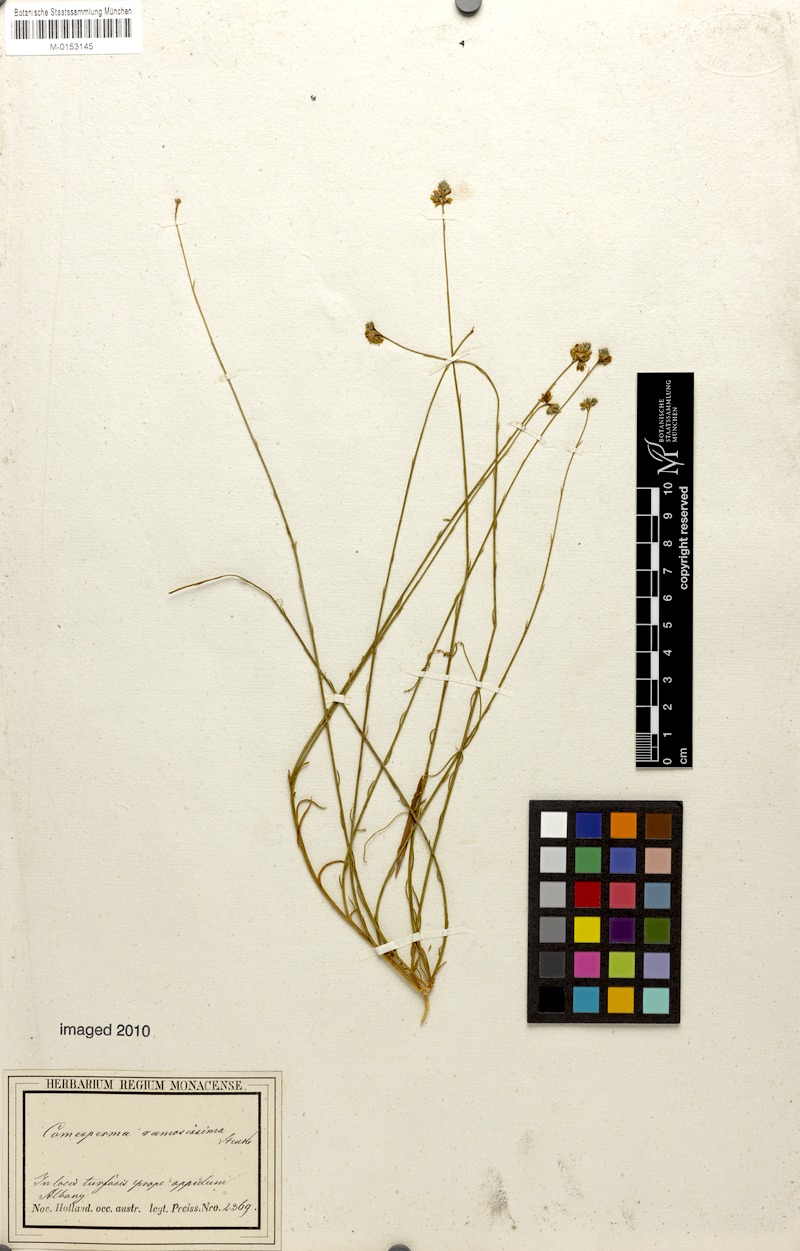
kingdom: Plantae
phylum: Tracheophyta
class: Magnoliopsida
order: Fabales
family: Polygalaceae
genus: Comesperma
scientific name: Comesperma nudiusculum
